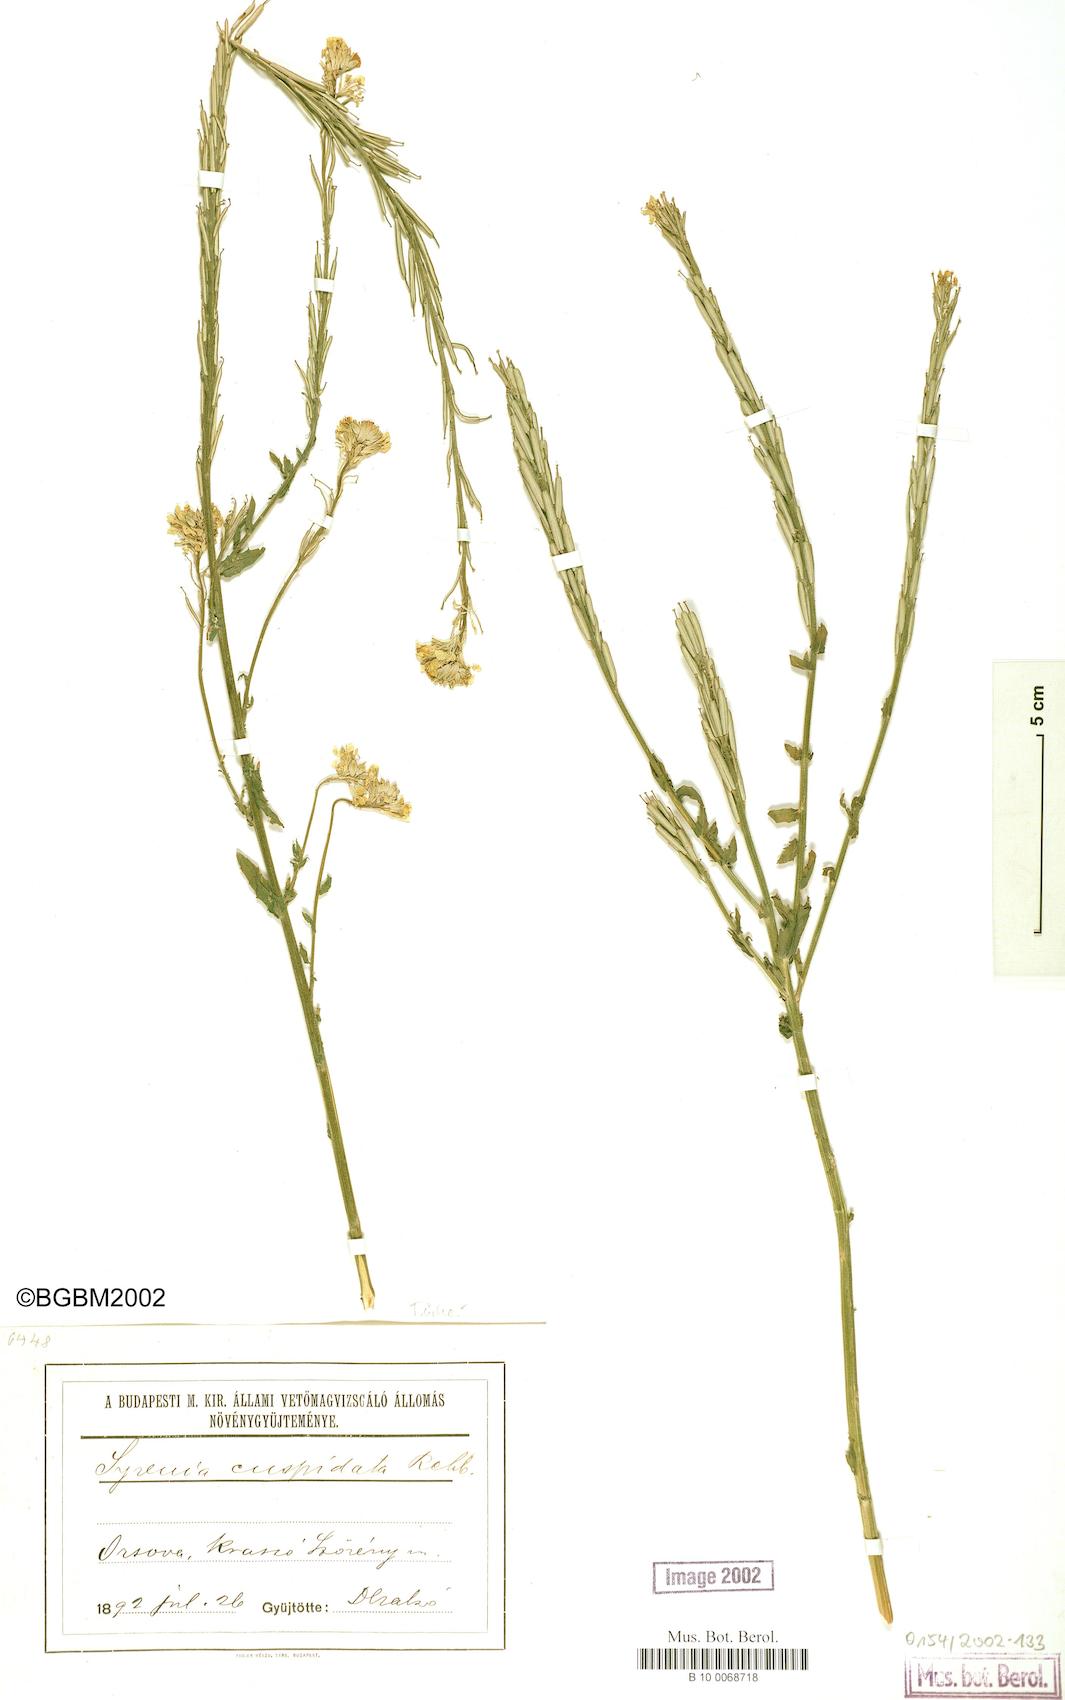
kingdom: Plantae
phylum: Tracheophyta
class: Magnoliopsida
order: Brassicales
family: Brassicaceae
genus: Erysimum
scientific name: Erysimum cuspidatum
